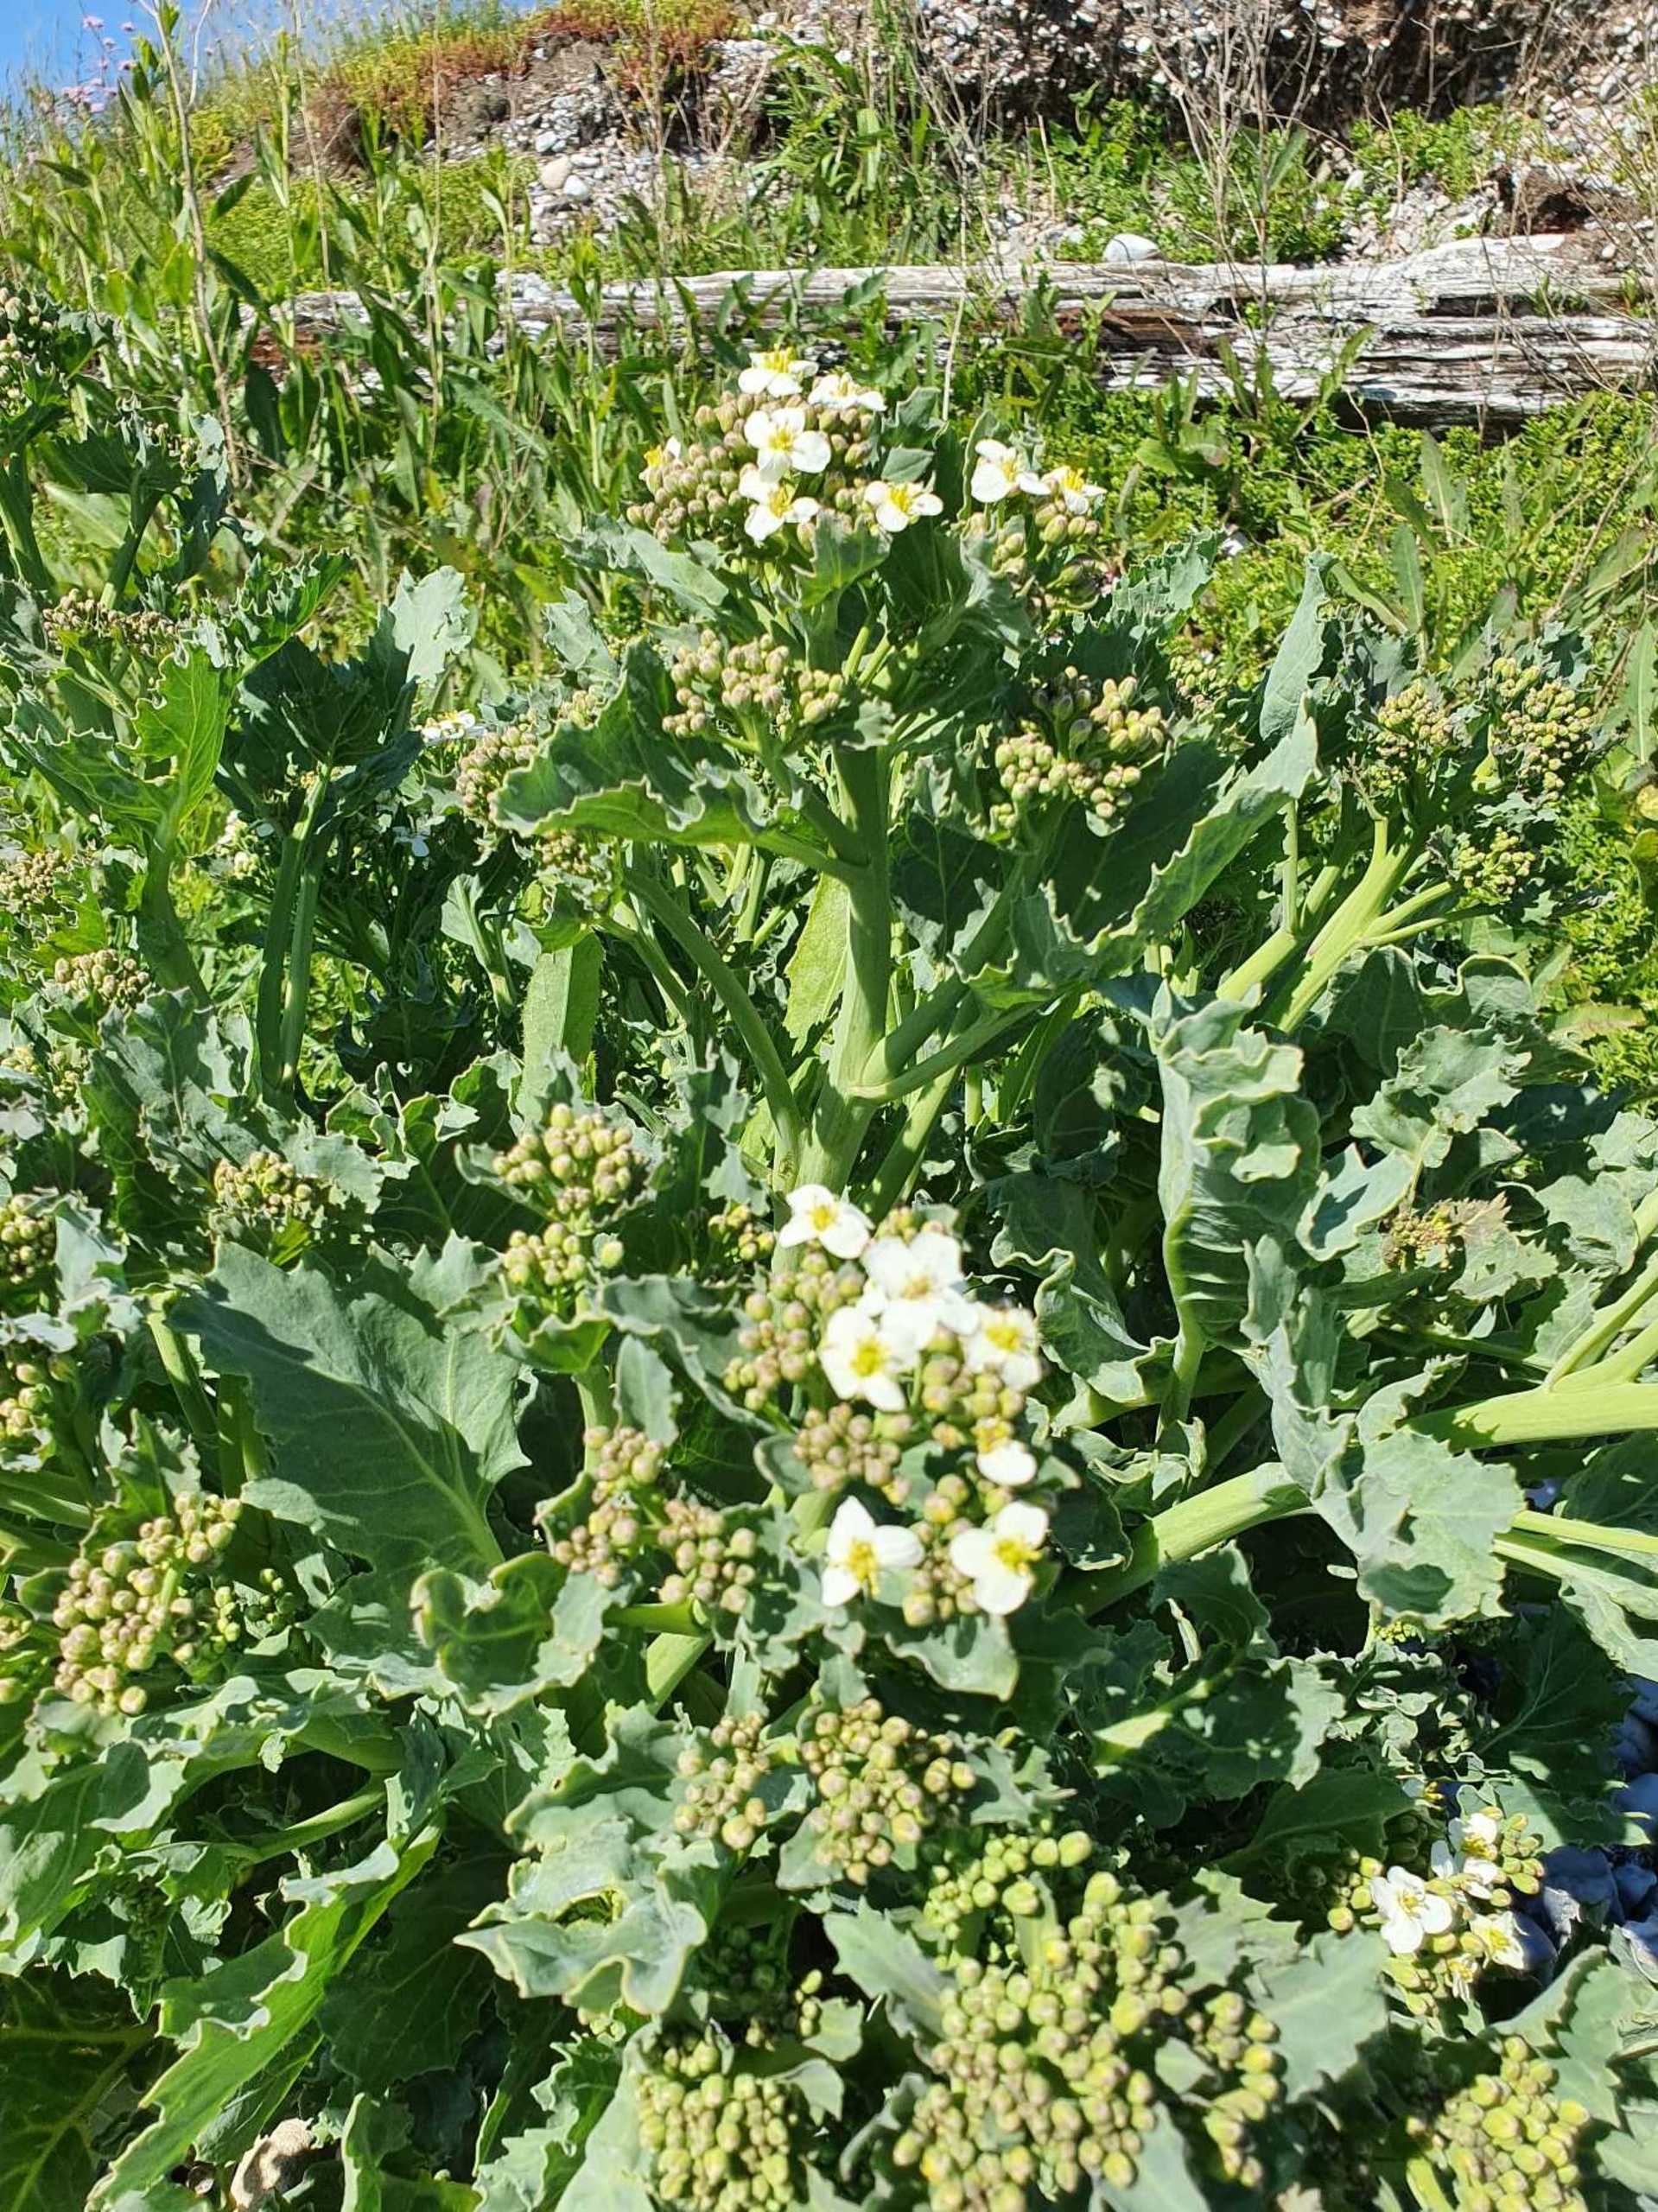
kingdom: Plantae
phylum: Tracheophyta
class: Magnoliopsida
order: Brassicales
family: Brassicaceae
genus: Crambe
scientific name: Crambe maritima
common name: Strandkål
